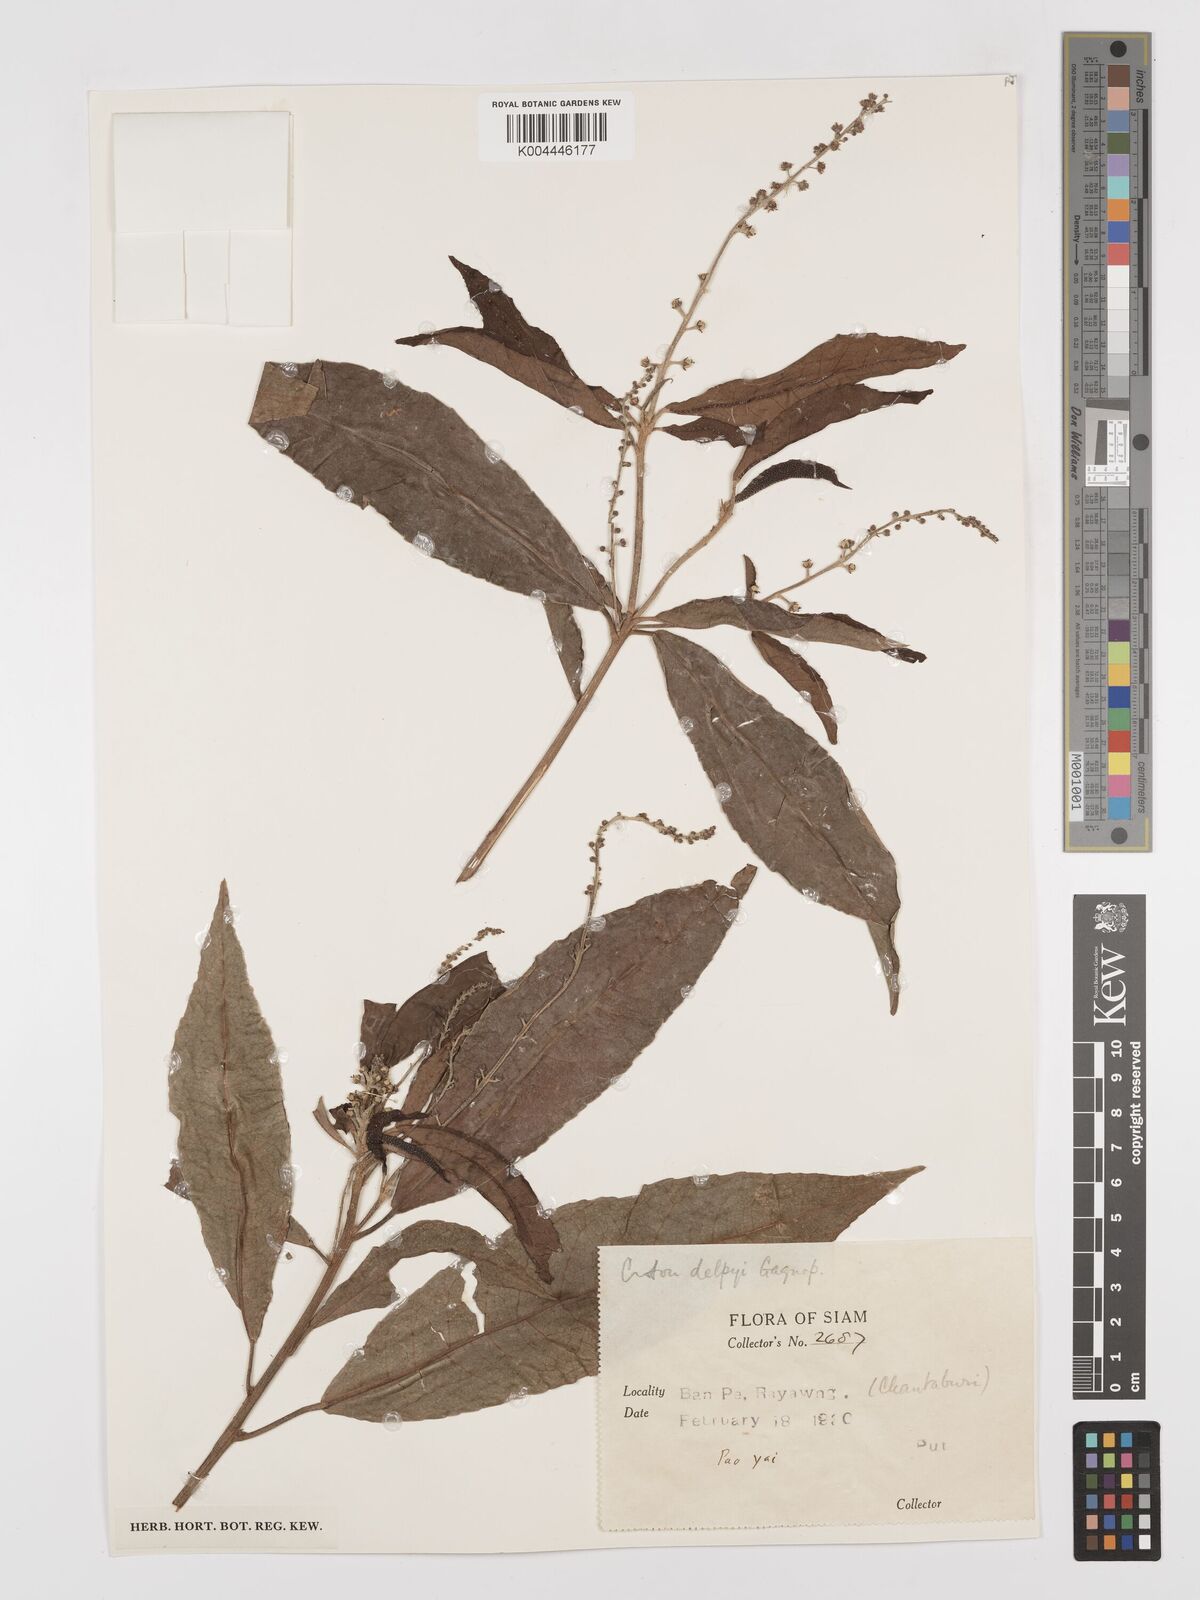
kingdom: Plantae
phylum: Tracheophyta
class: Magnoliopsida
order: Malpighiales
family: Euphorbiaceae
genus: Croton
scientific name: Croton delpyi
